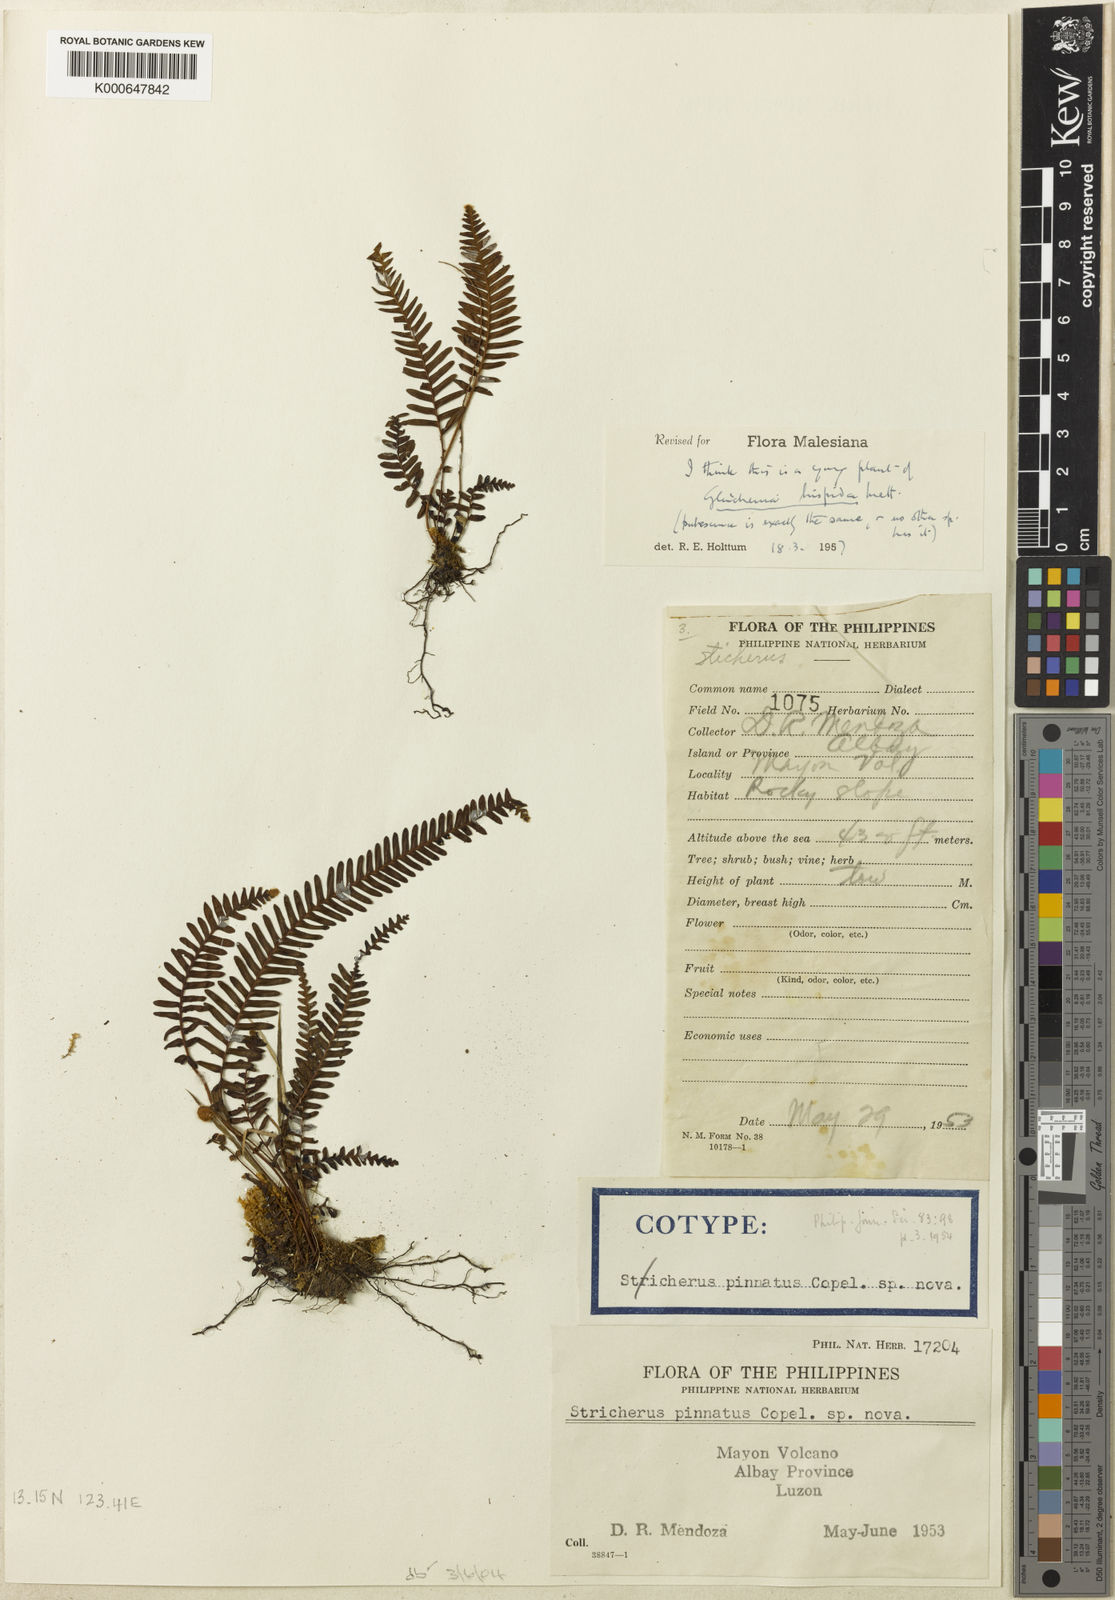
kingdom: Plantae
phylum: Tracheophyta
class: Polypodiopsida
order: Gleicheniales
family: Gleicheniaceae
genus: Sticherus
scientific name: Sticherus hispidus
